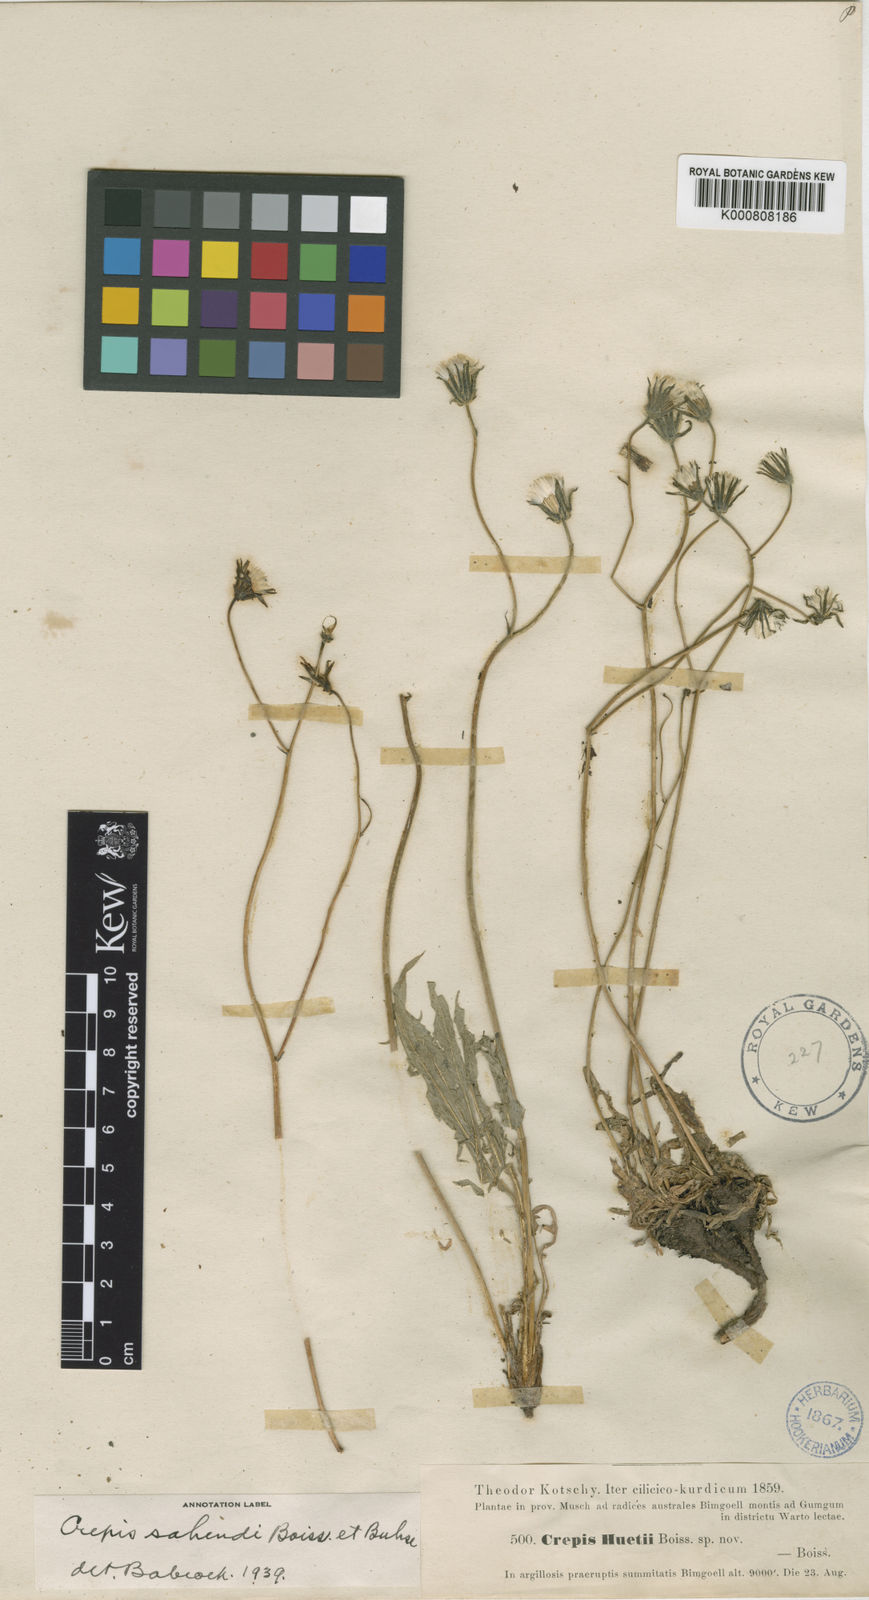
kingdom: Plantae
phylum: Tracheophyta
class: Magnoliopsida
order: Asterales
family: Asteraceae
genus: Crepis
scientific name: Crepis sahendii
